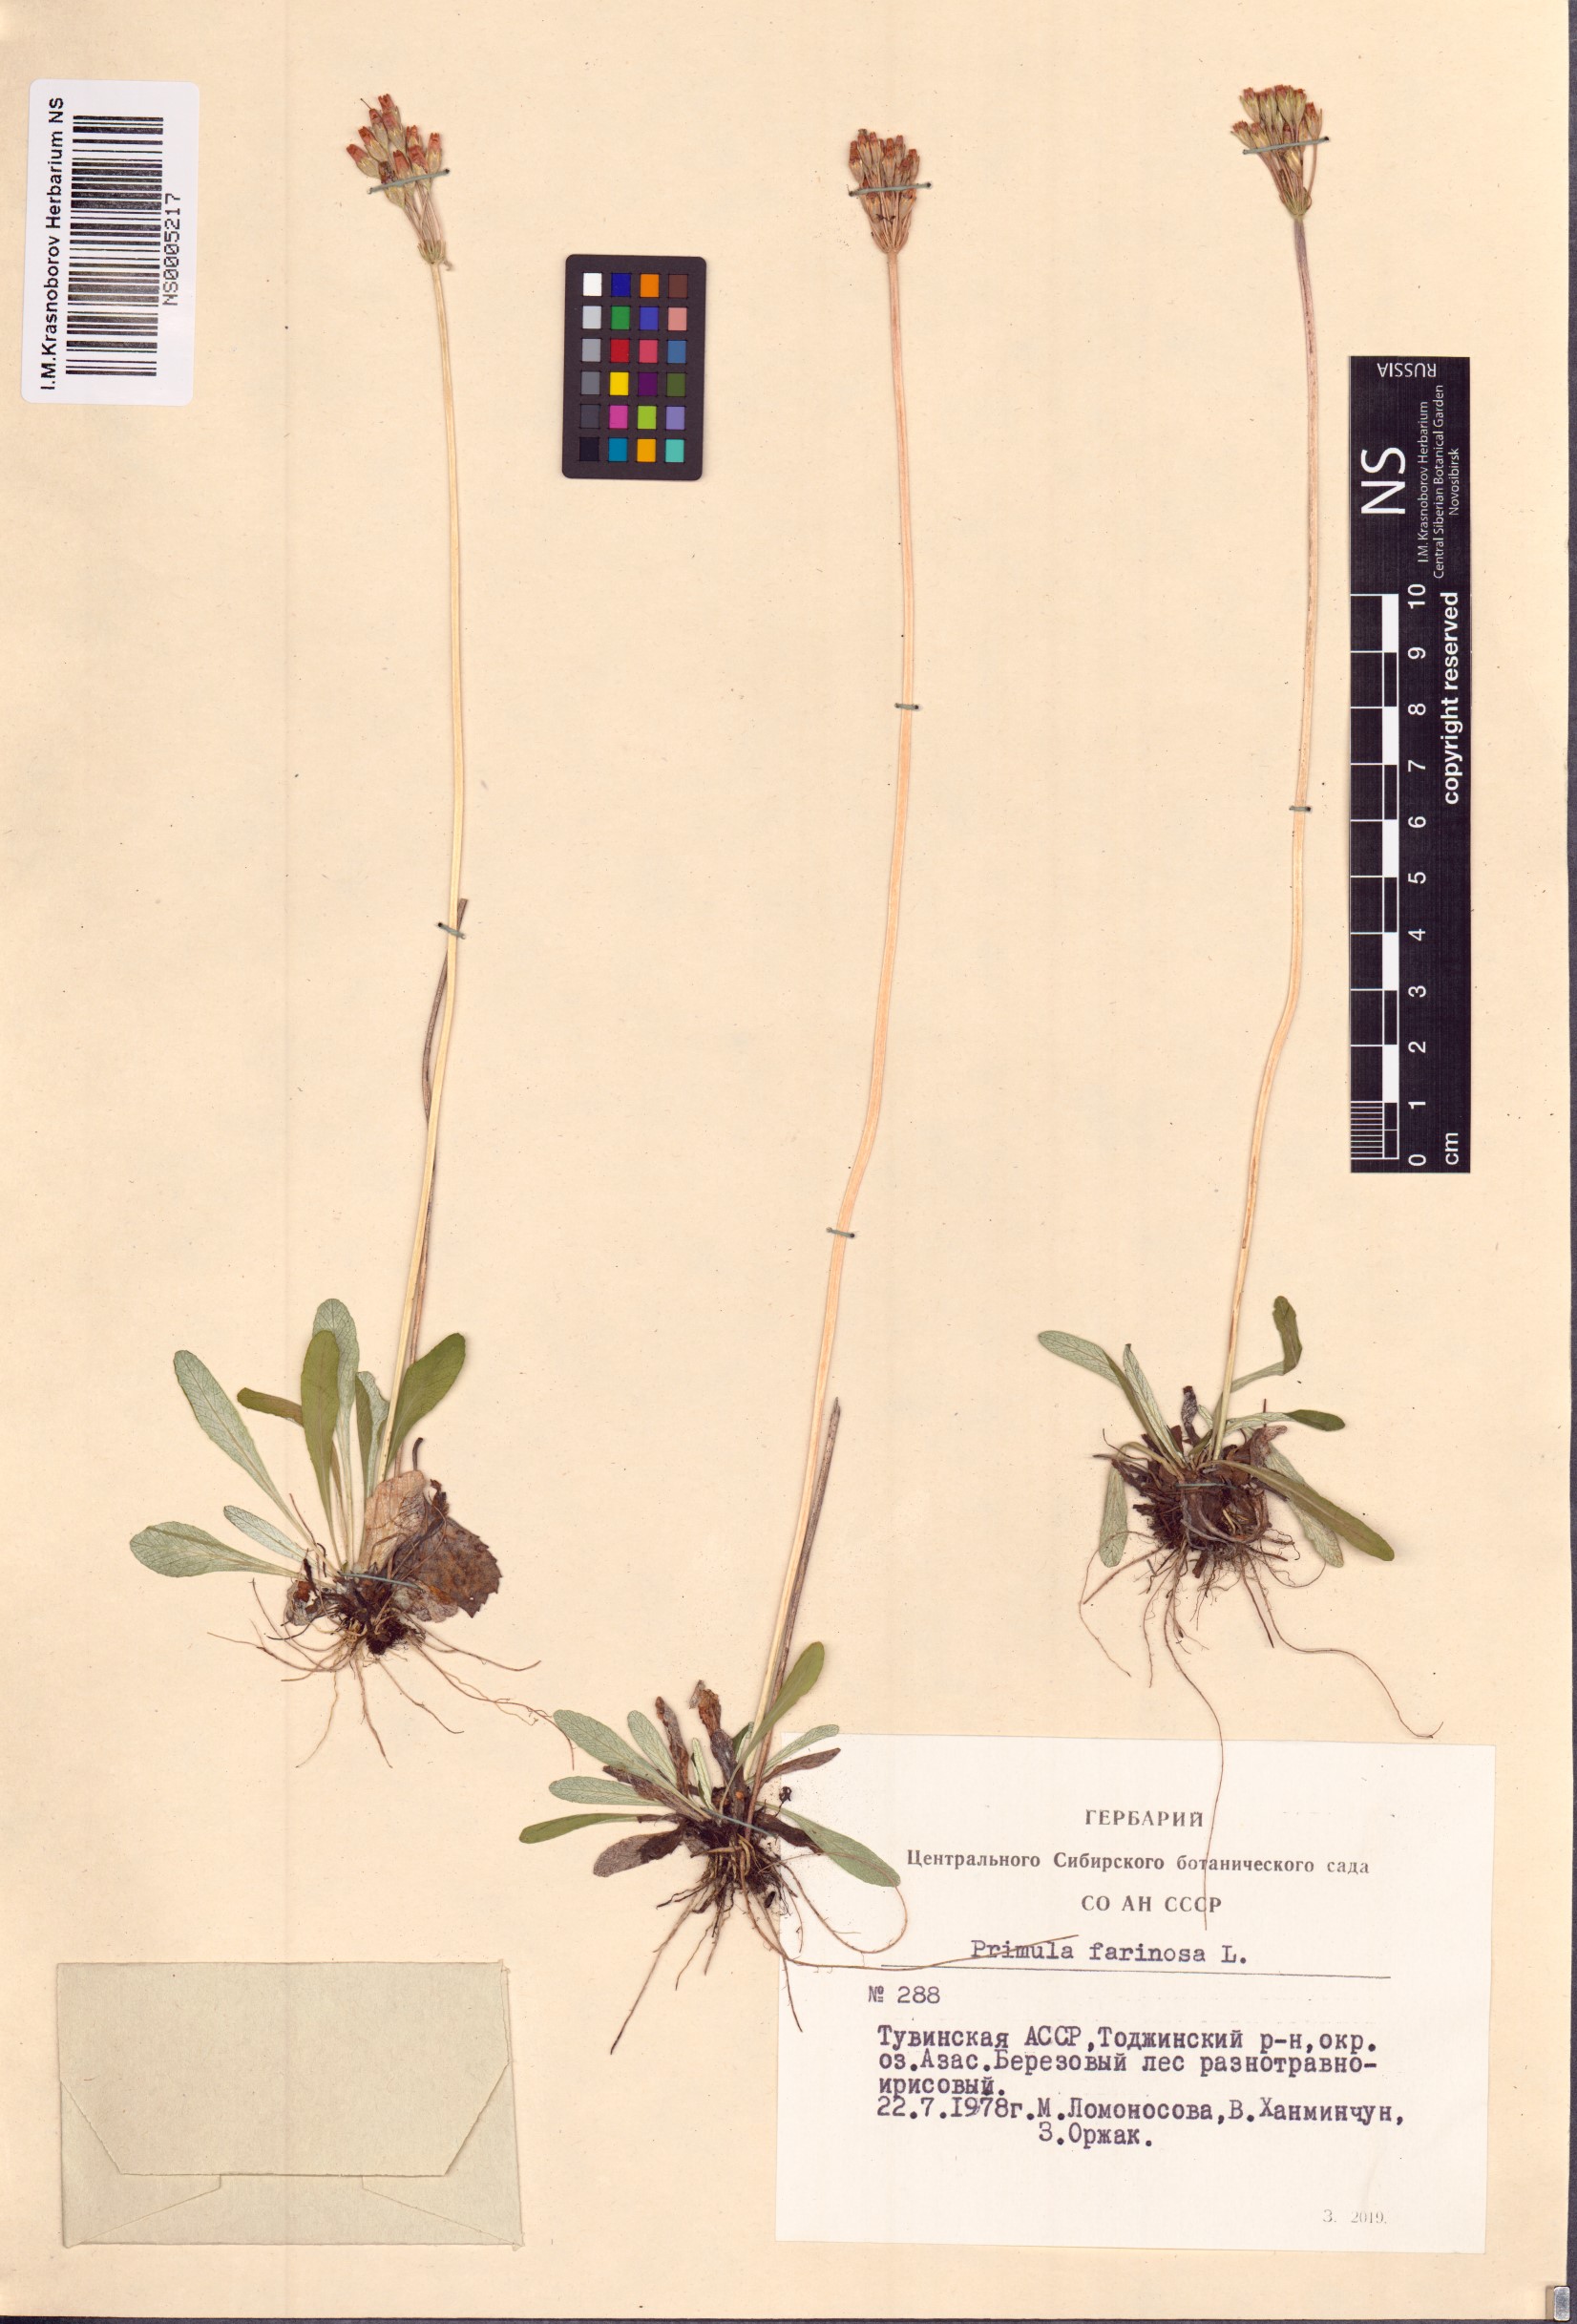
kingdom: Plantae
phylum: Tracheophyta
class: Magnoliopsida
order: Ericales
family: Primulaceae
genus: Primula
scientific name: Primula farinosa
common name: Bird's-eye primrose
